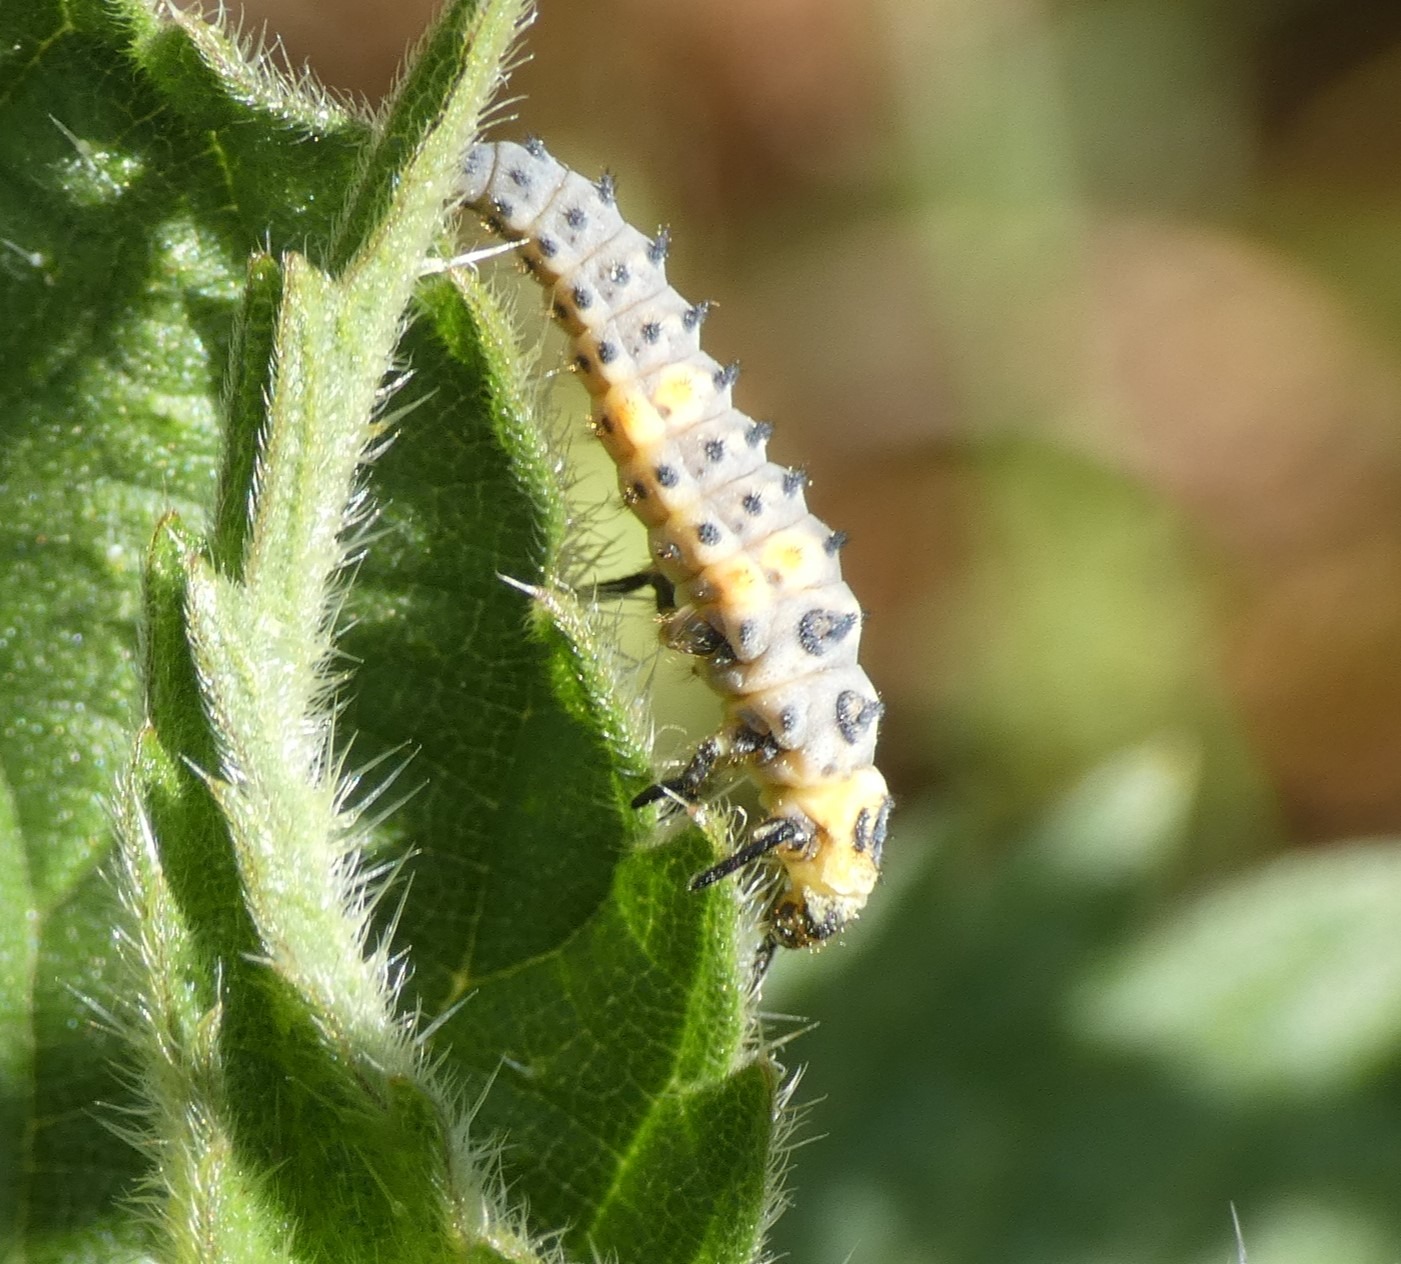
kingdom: Animalia
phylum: Arthropoda
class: Insecta
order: Coleoptera
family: Coccinellidae
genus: Coccinella
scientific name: Coccinella septempunctata
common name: Syvplettet mariehøne
